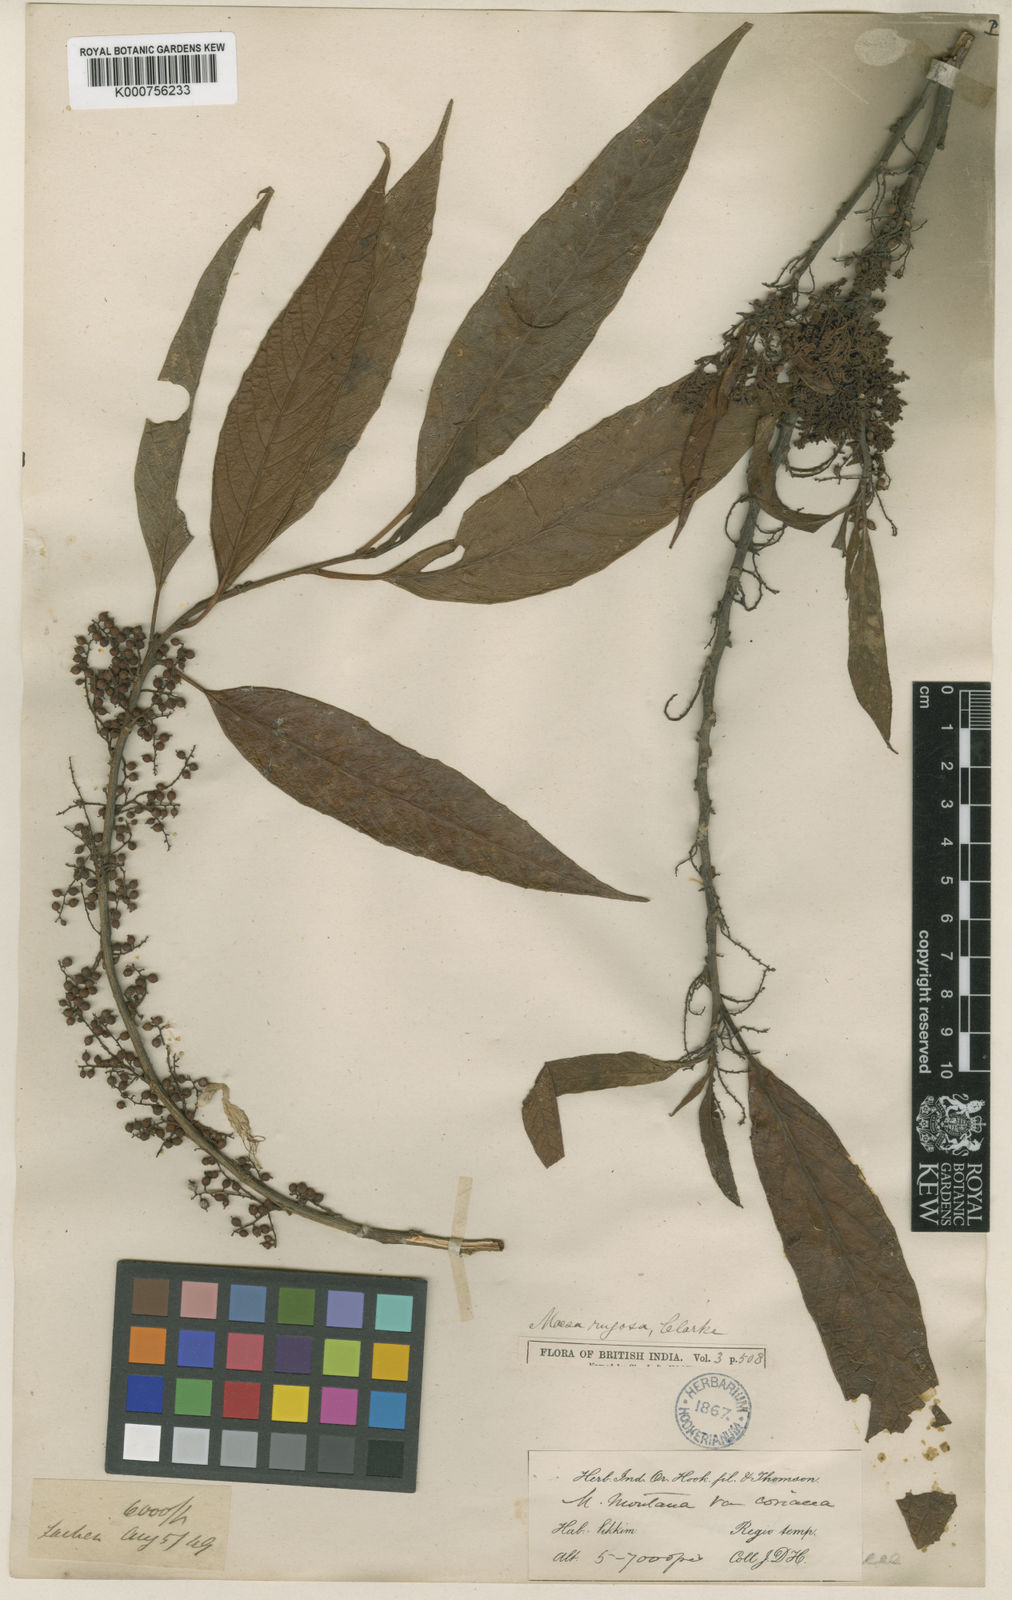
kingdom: Plantae
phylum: Tracheophyta
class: Magnoliopsida
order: Ericales
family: Primulaceae
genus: Maesa
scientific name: Maesa rugosa
